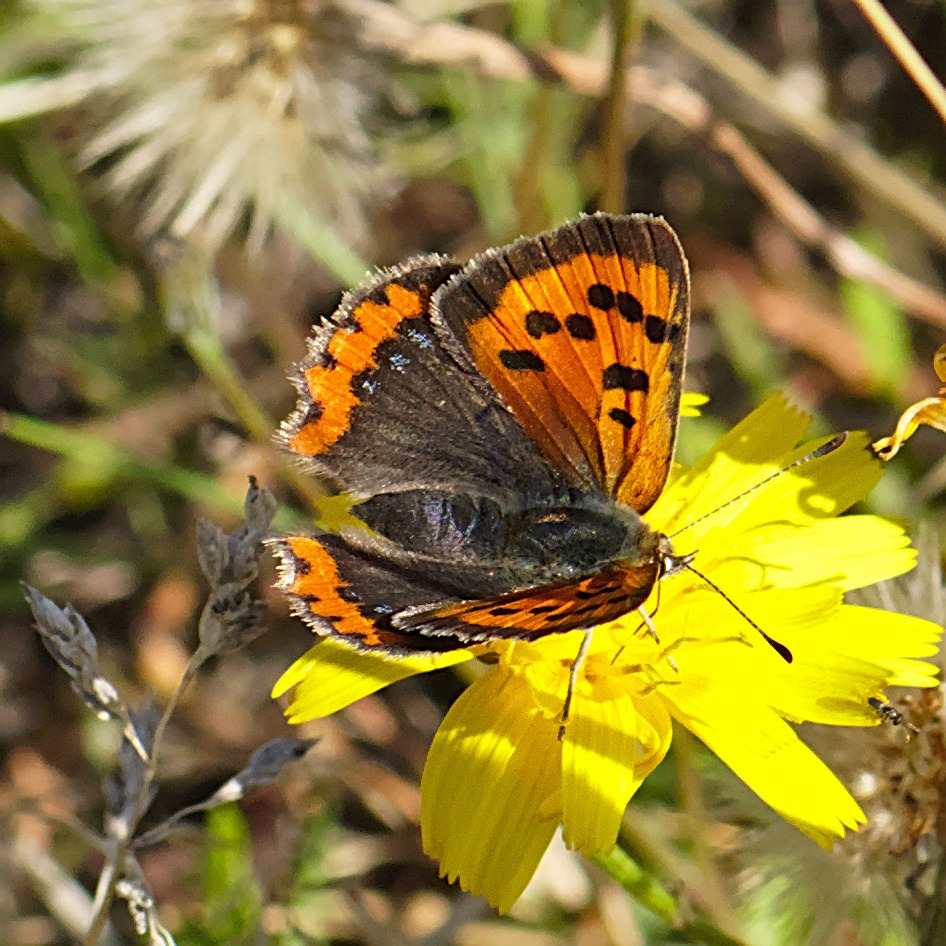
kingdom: Animalia
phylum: Arthropoda
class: Insecta
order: Lepidoptera
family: Lycaenidae
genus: Lycaena
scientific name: Lycaena phlaeas
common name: Lille ildfugl
